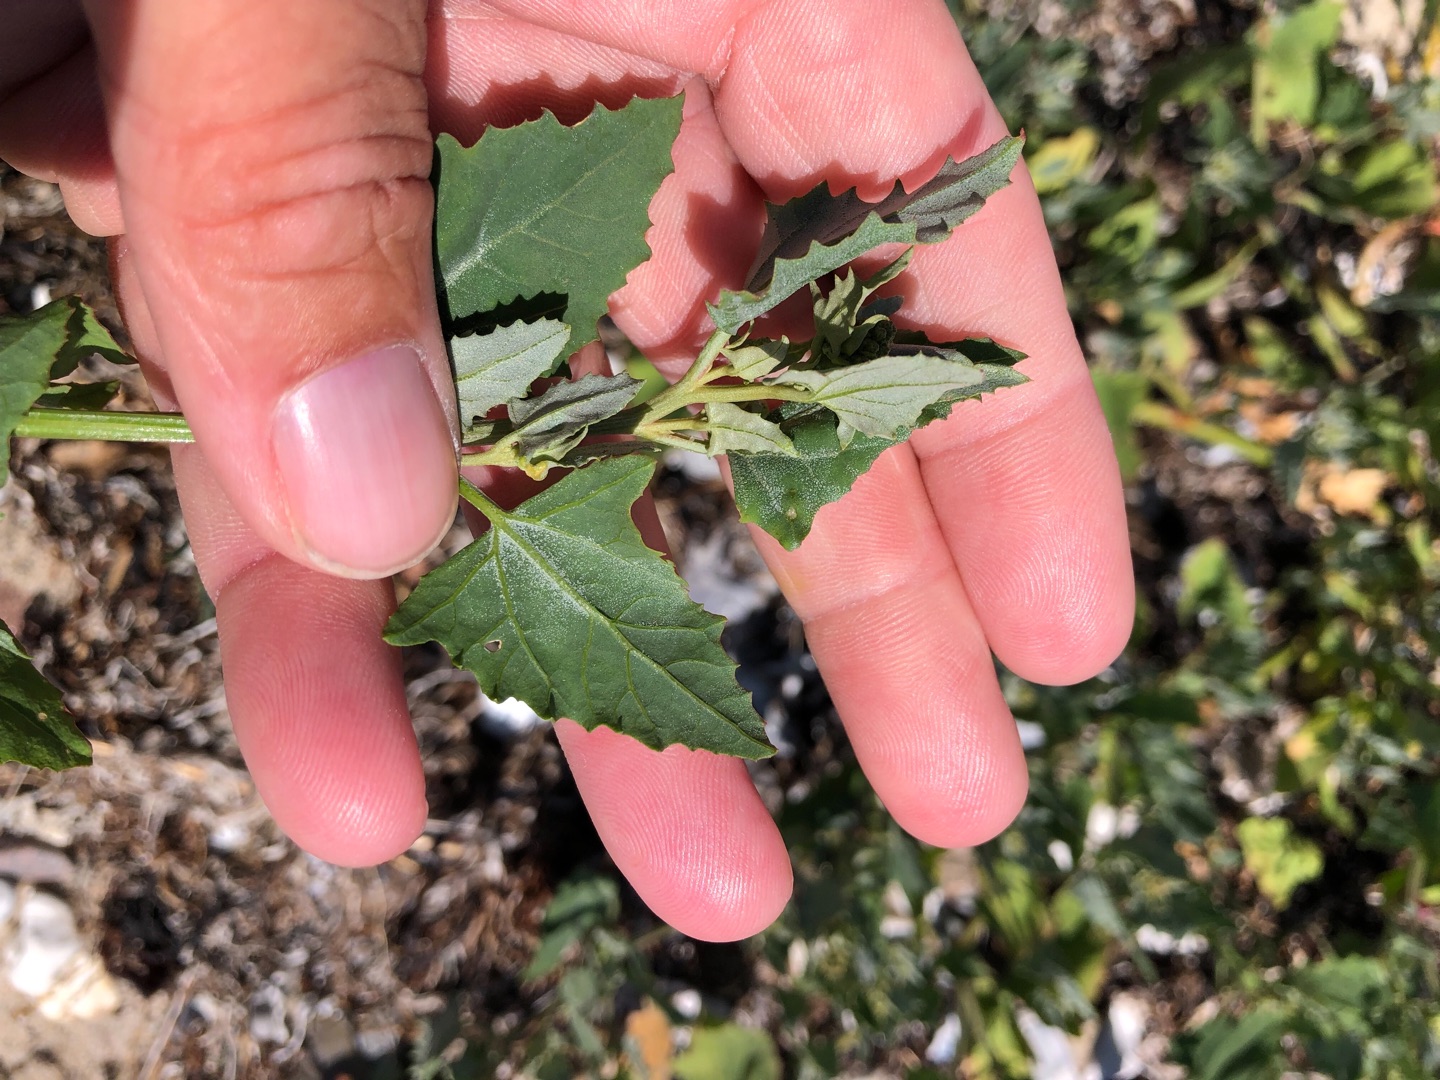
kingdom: Plantae
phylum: Tracheophyta
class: Magnoliopsida
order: Caryophyllales
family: Amaranthaceae
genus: Atriplex
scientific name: Atriplex prostrata
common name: Spyd-mælde
